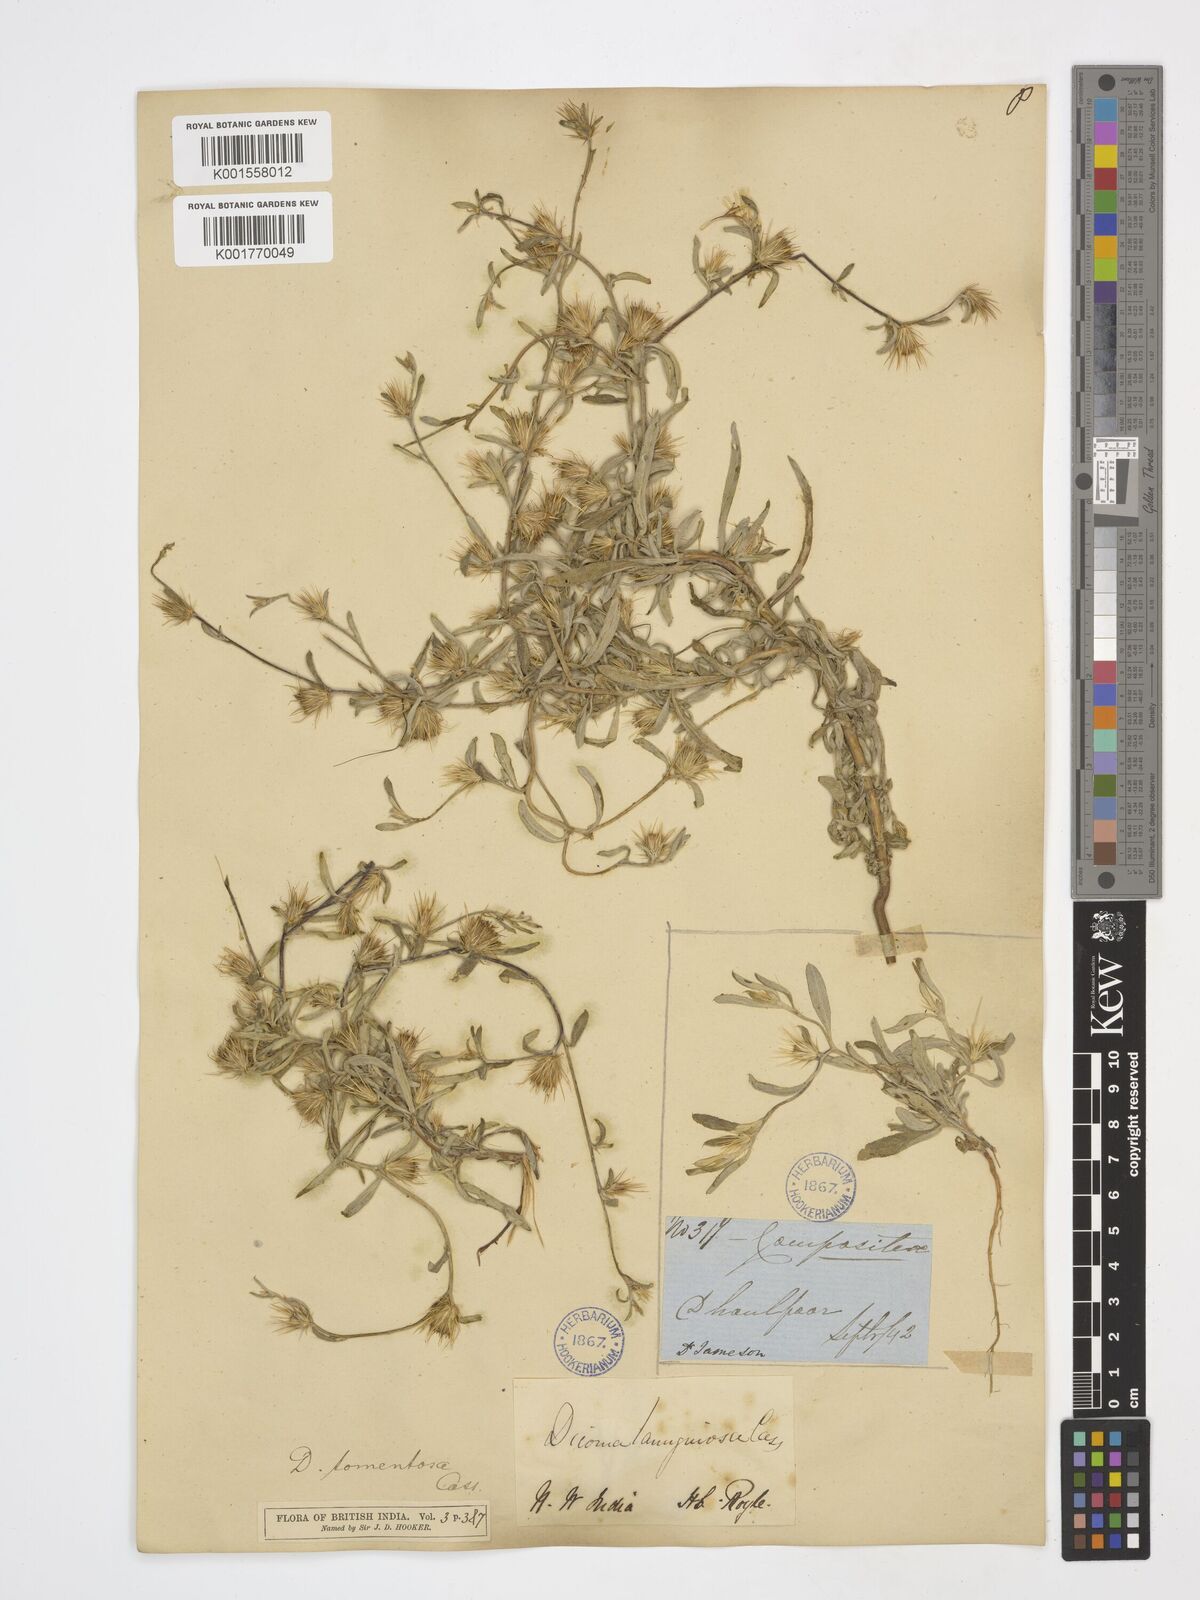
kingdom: Plantae
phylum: Tracheophyta
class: Magnoliopsida
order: Asterales
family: Asteraceae
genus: Dicoma
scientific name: Dicoma tomentosa
